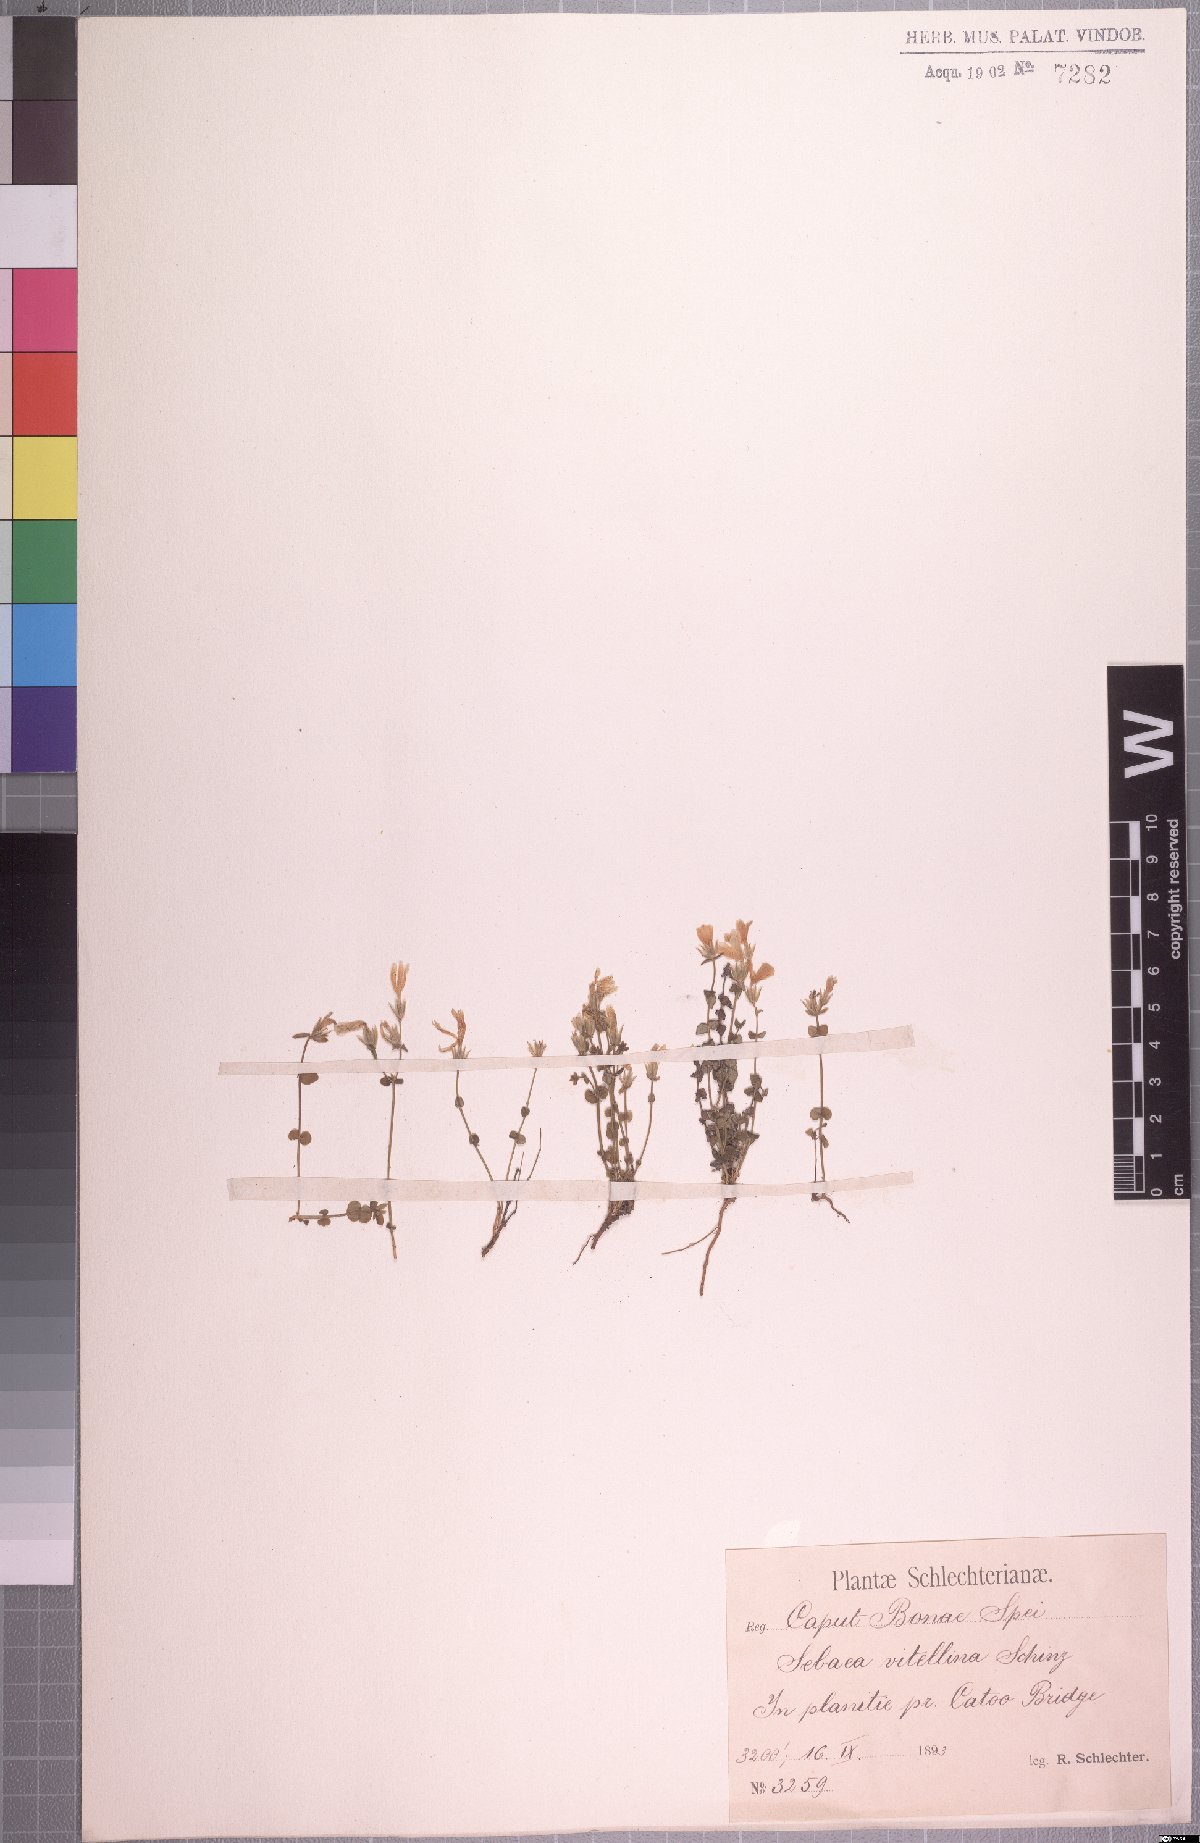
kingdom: Plantae
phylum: Tracheophyta
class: Magnoliopsida
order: Gentianales
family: Gentianaceae
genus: Sebaea
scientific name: Sebaea natalensis
